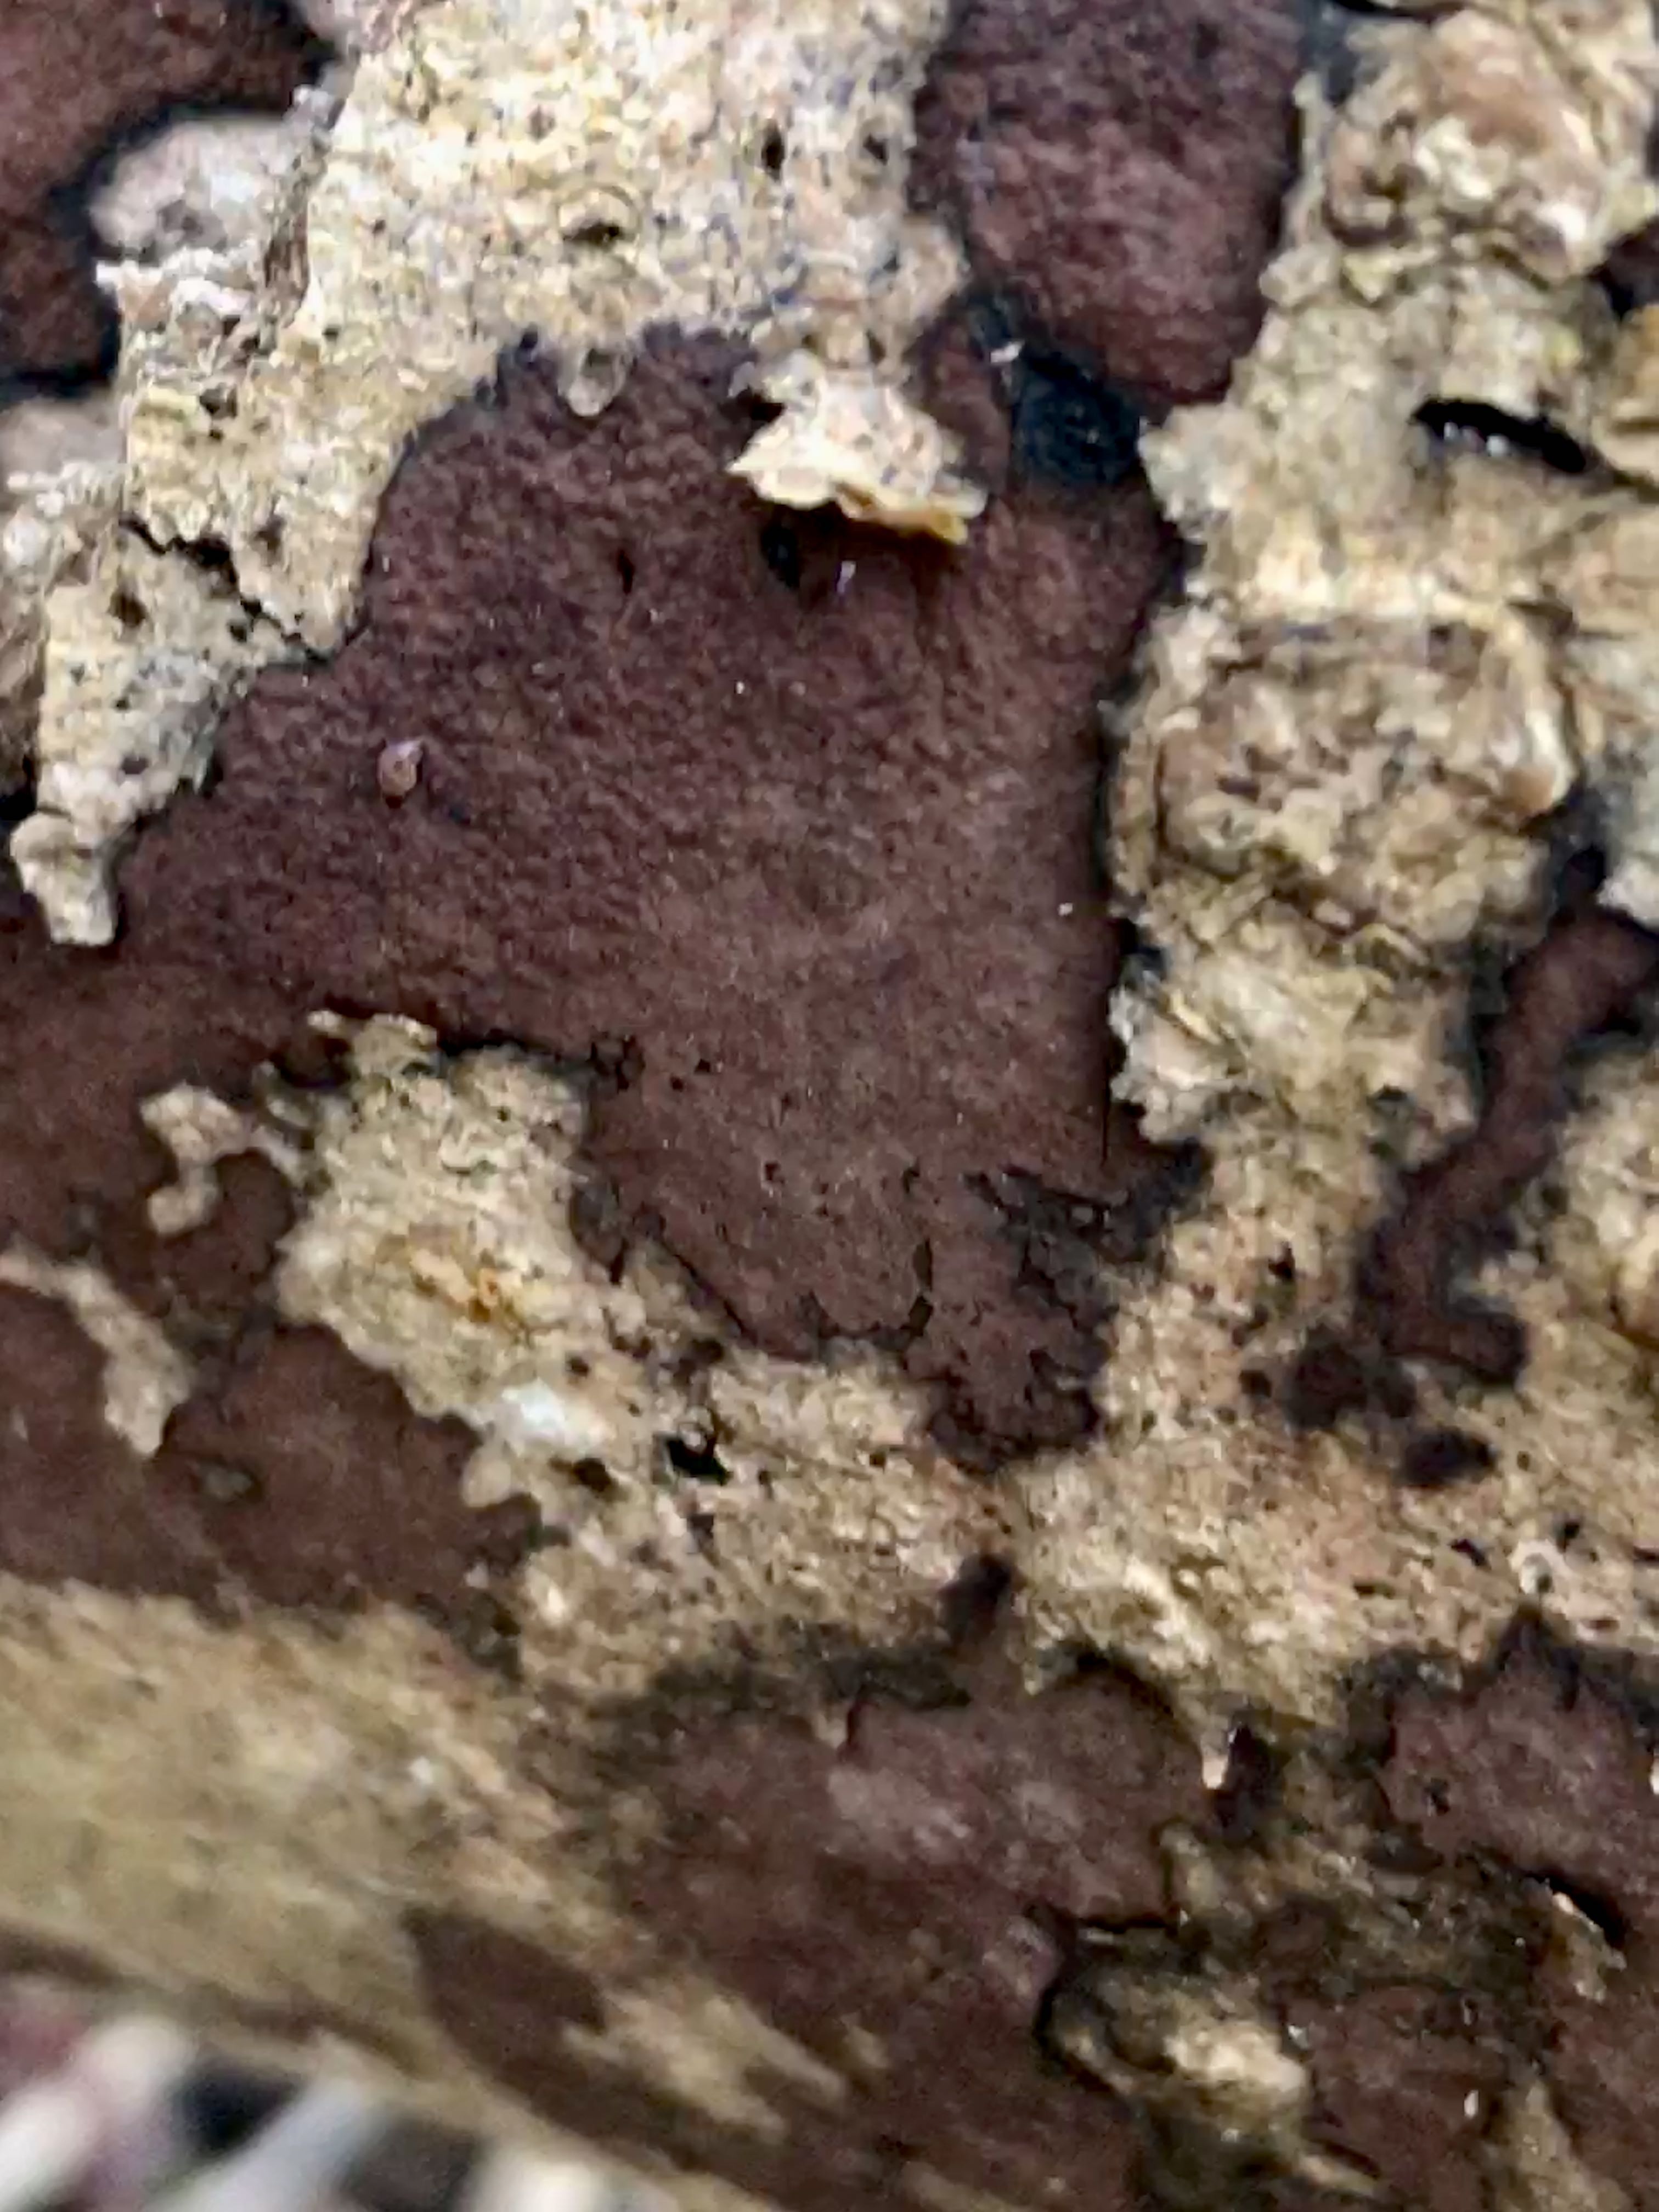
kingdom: Fungi
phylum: Ascomycota
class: Sordariomycetes
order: Xylariales
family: Hypoxylaceae
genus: Hypoxylon
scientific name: Hypoxylon petriniae
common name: nedsænket kulbær
